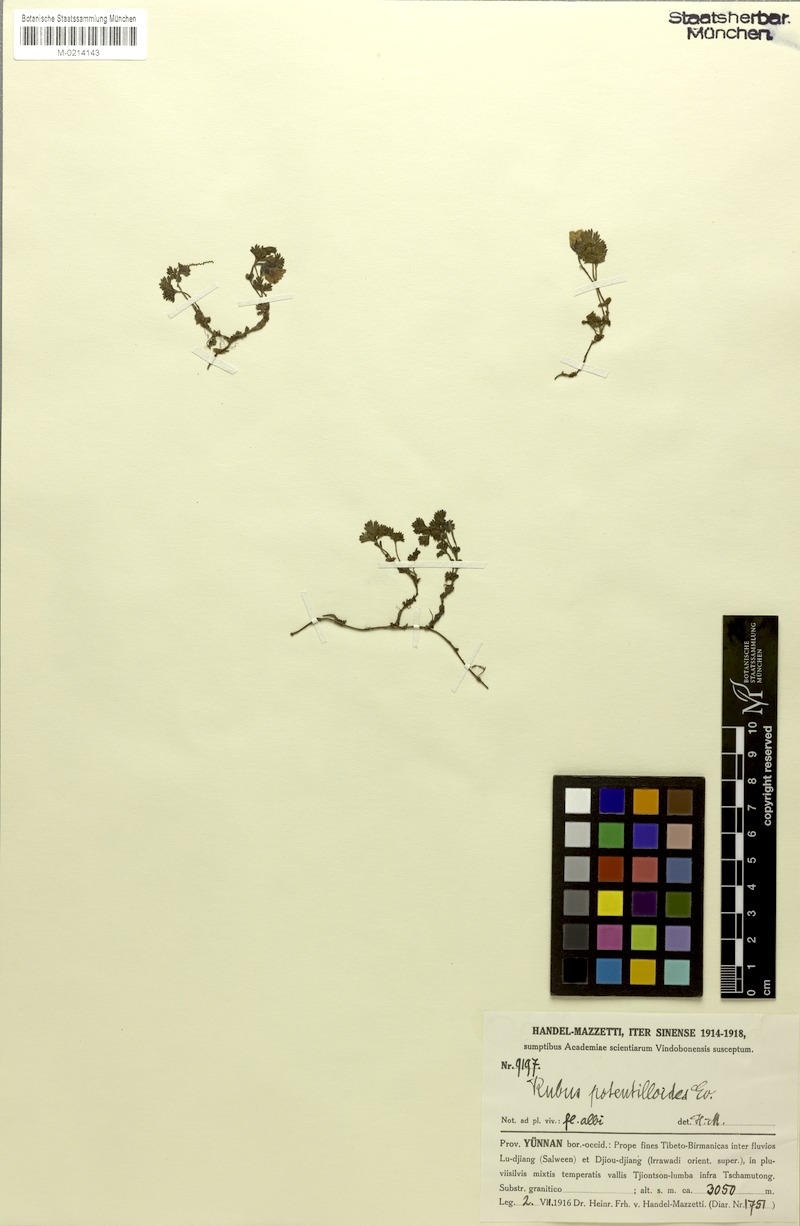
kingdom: Plantae
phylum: Tracheophyta
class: Magnoliopsida
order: Rosales
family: Rosaceae
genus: Rubus
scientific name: Rubus potentilloides
